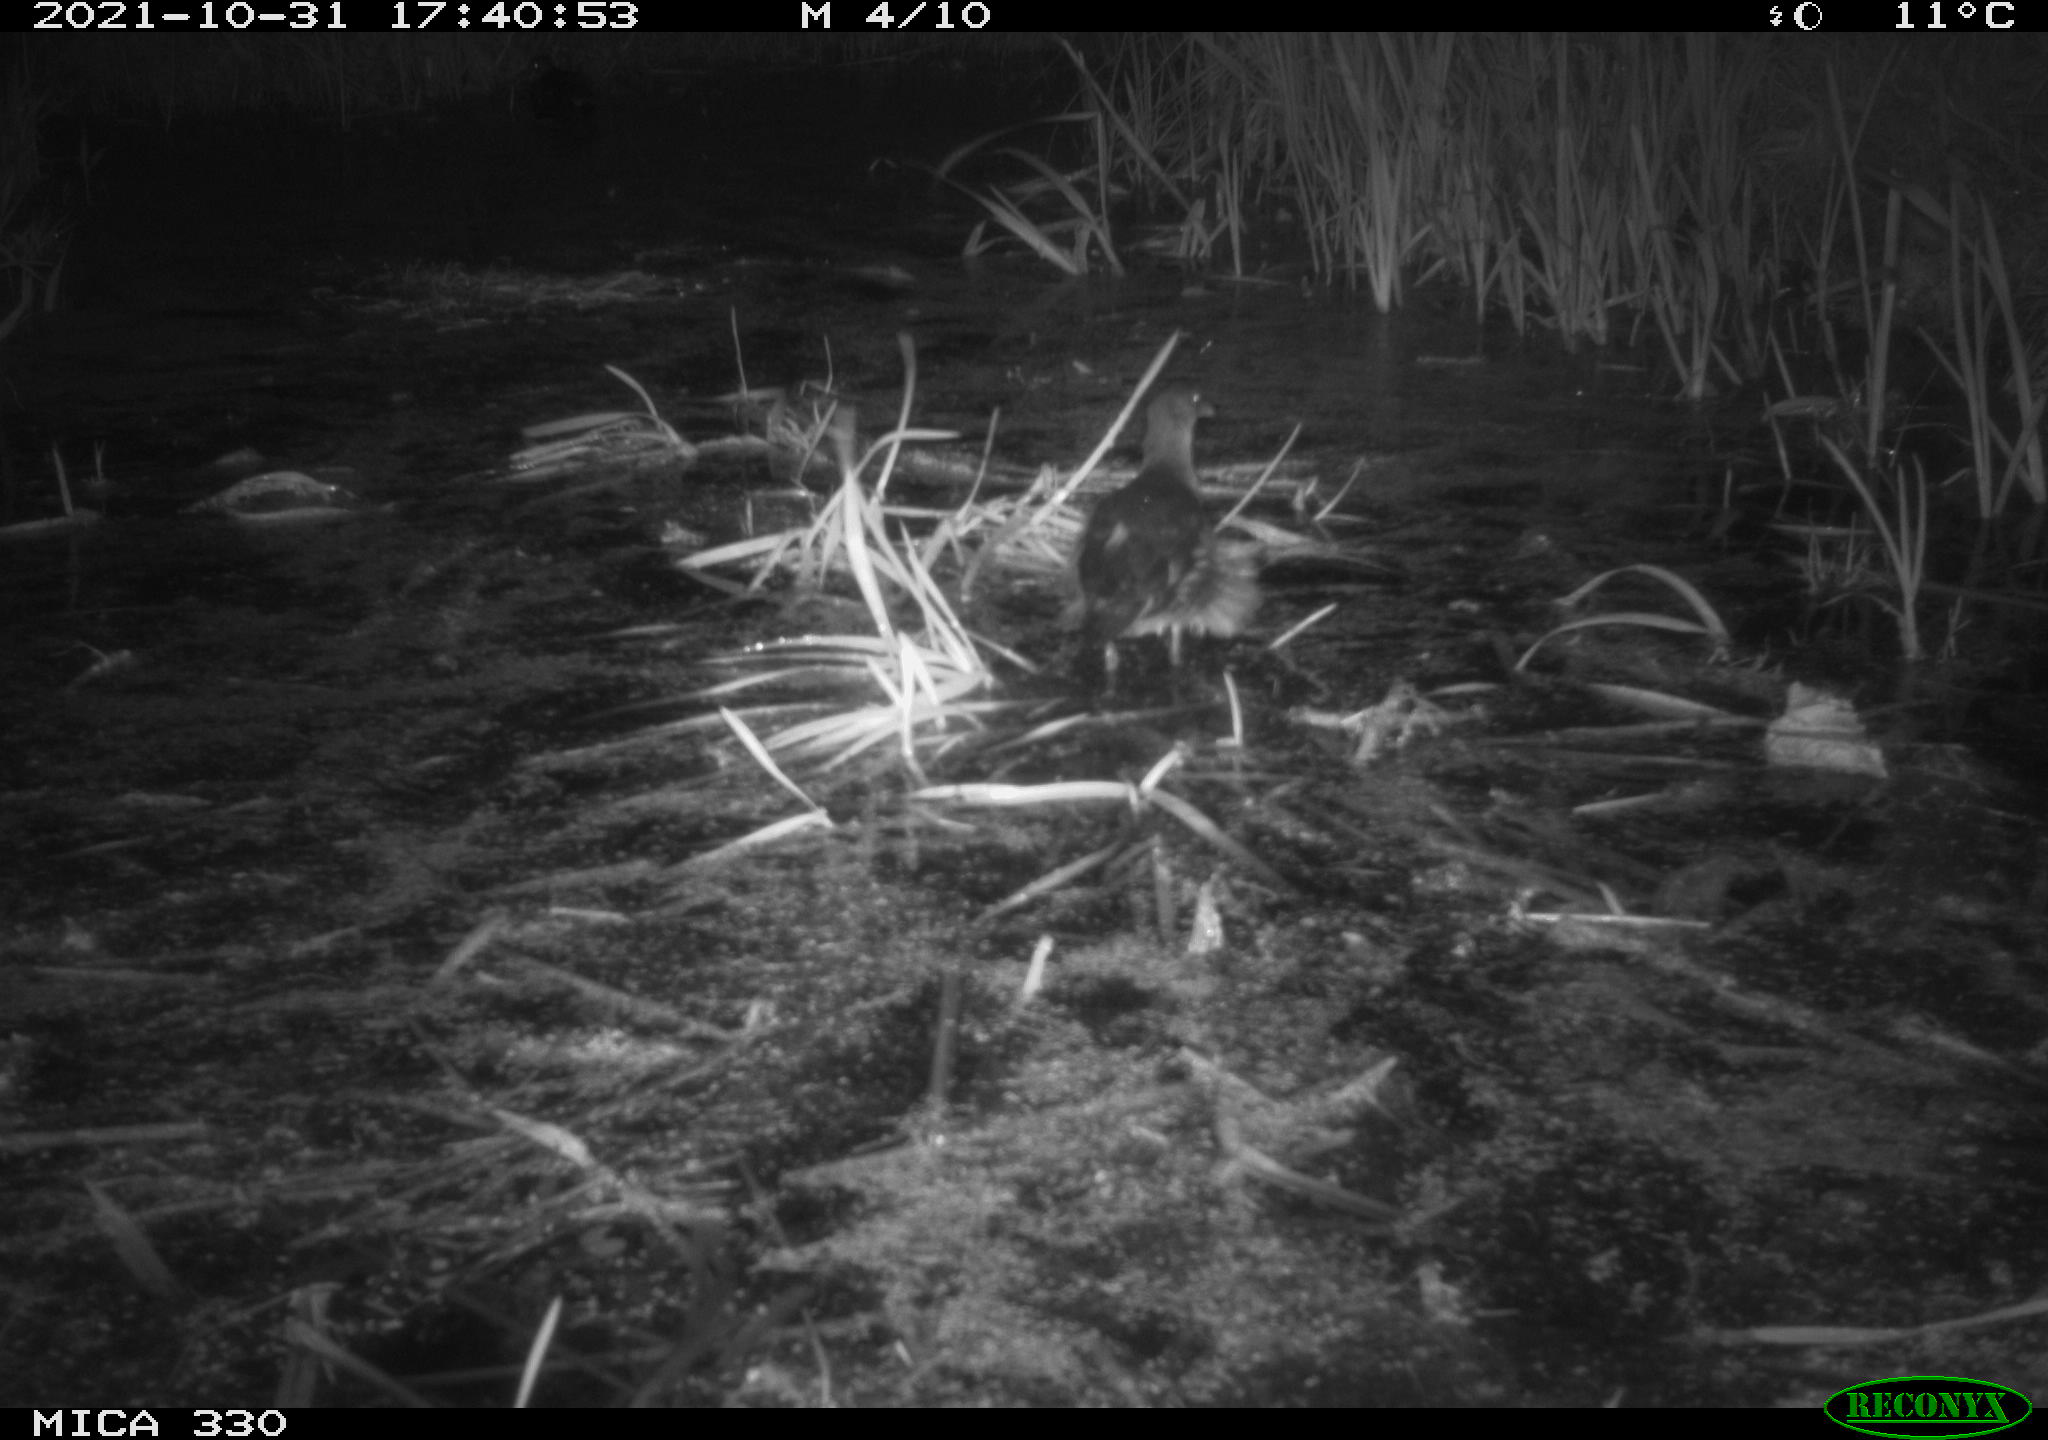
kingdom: Animalia
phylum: Chordata
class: Aves
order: Gruiformes
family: Rallidae
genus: Gallinula
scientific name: Gallinula chloropus
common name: Common moorhen
